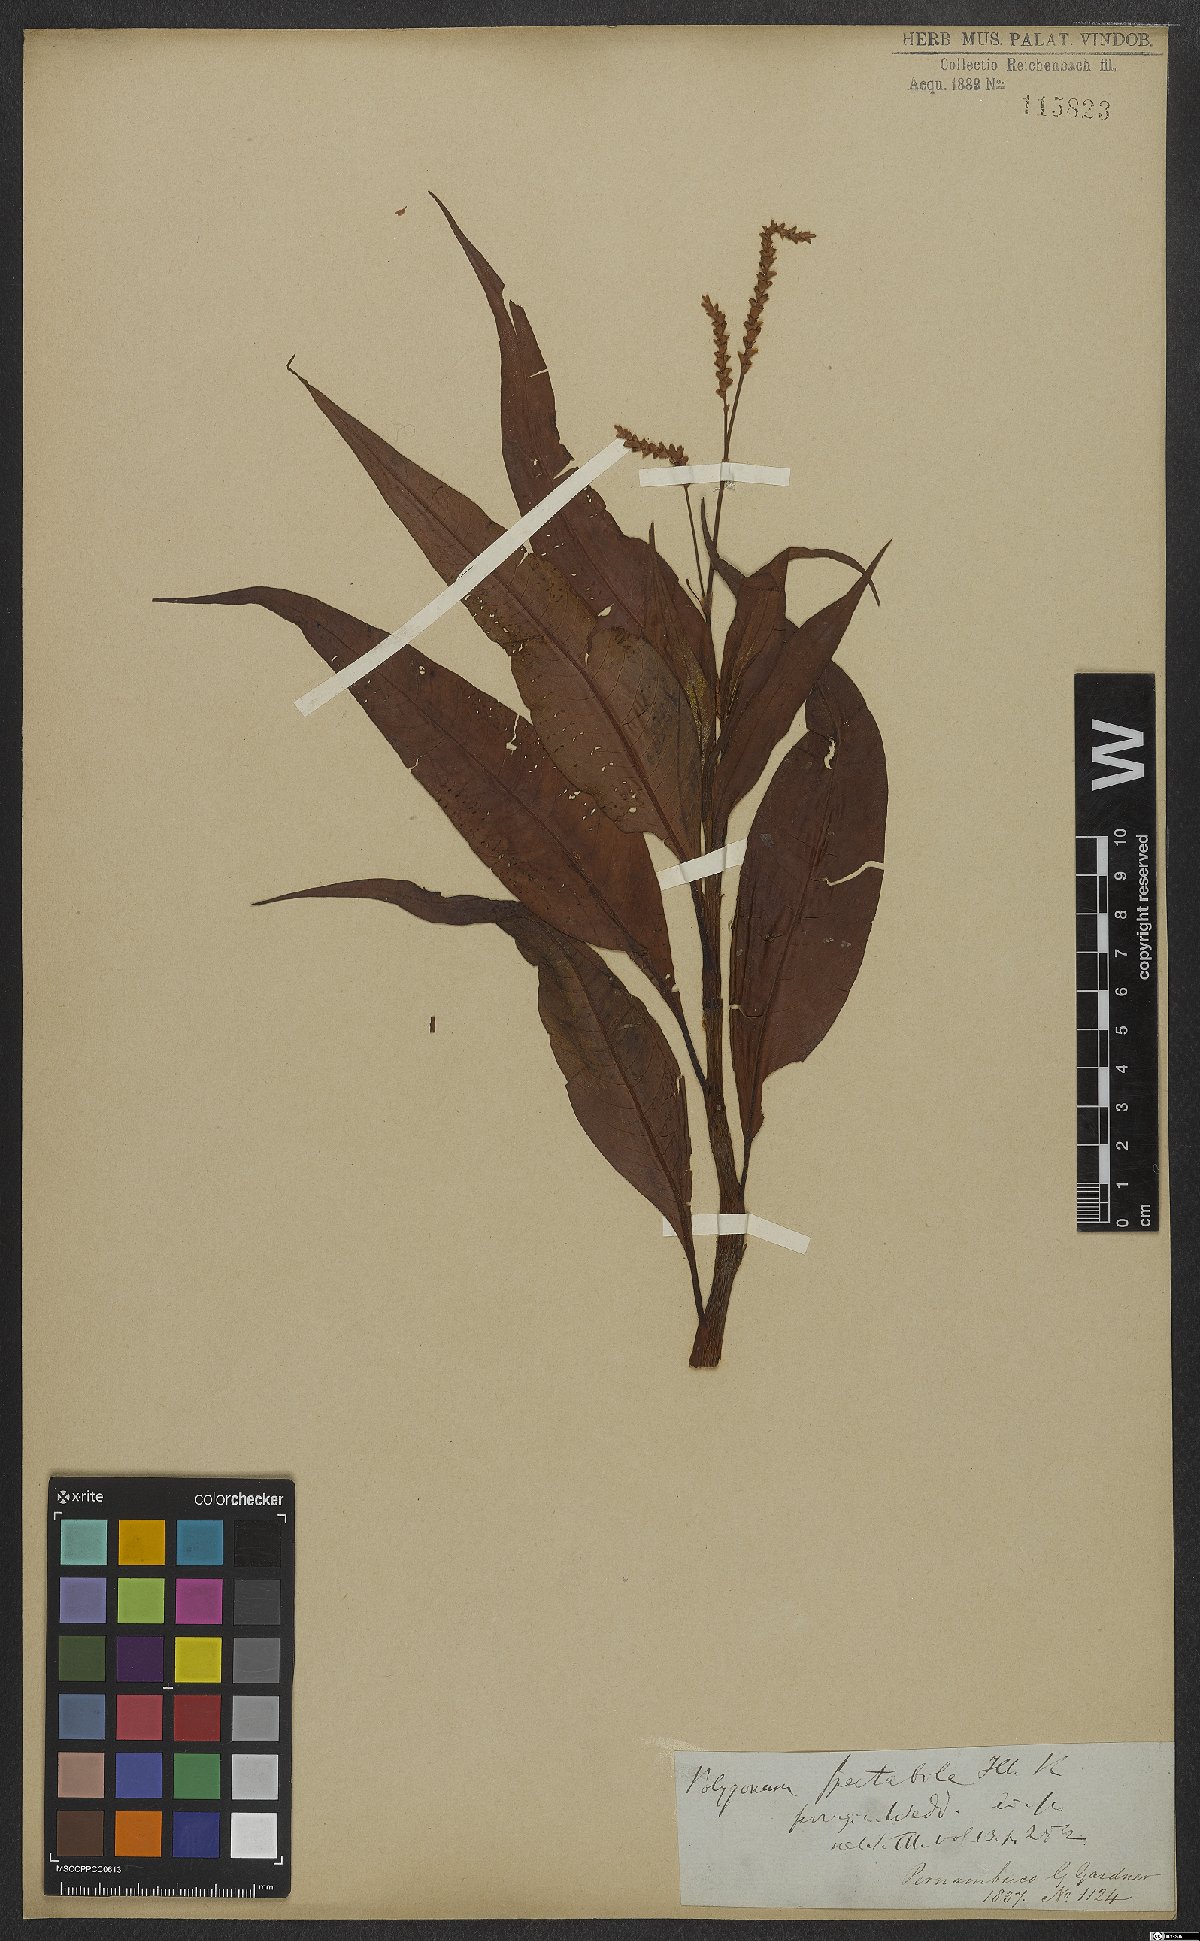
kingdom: Plantae
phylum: Tracheophyta
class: Magnoliopsida
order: Caryophyllales
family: Polygonaceae
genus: Persicaria
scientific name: Persicaria ferruginea
